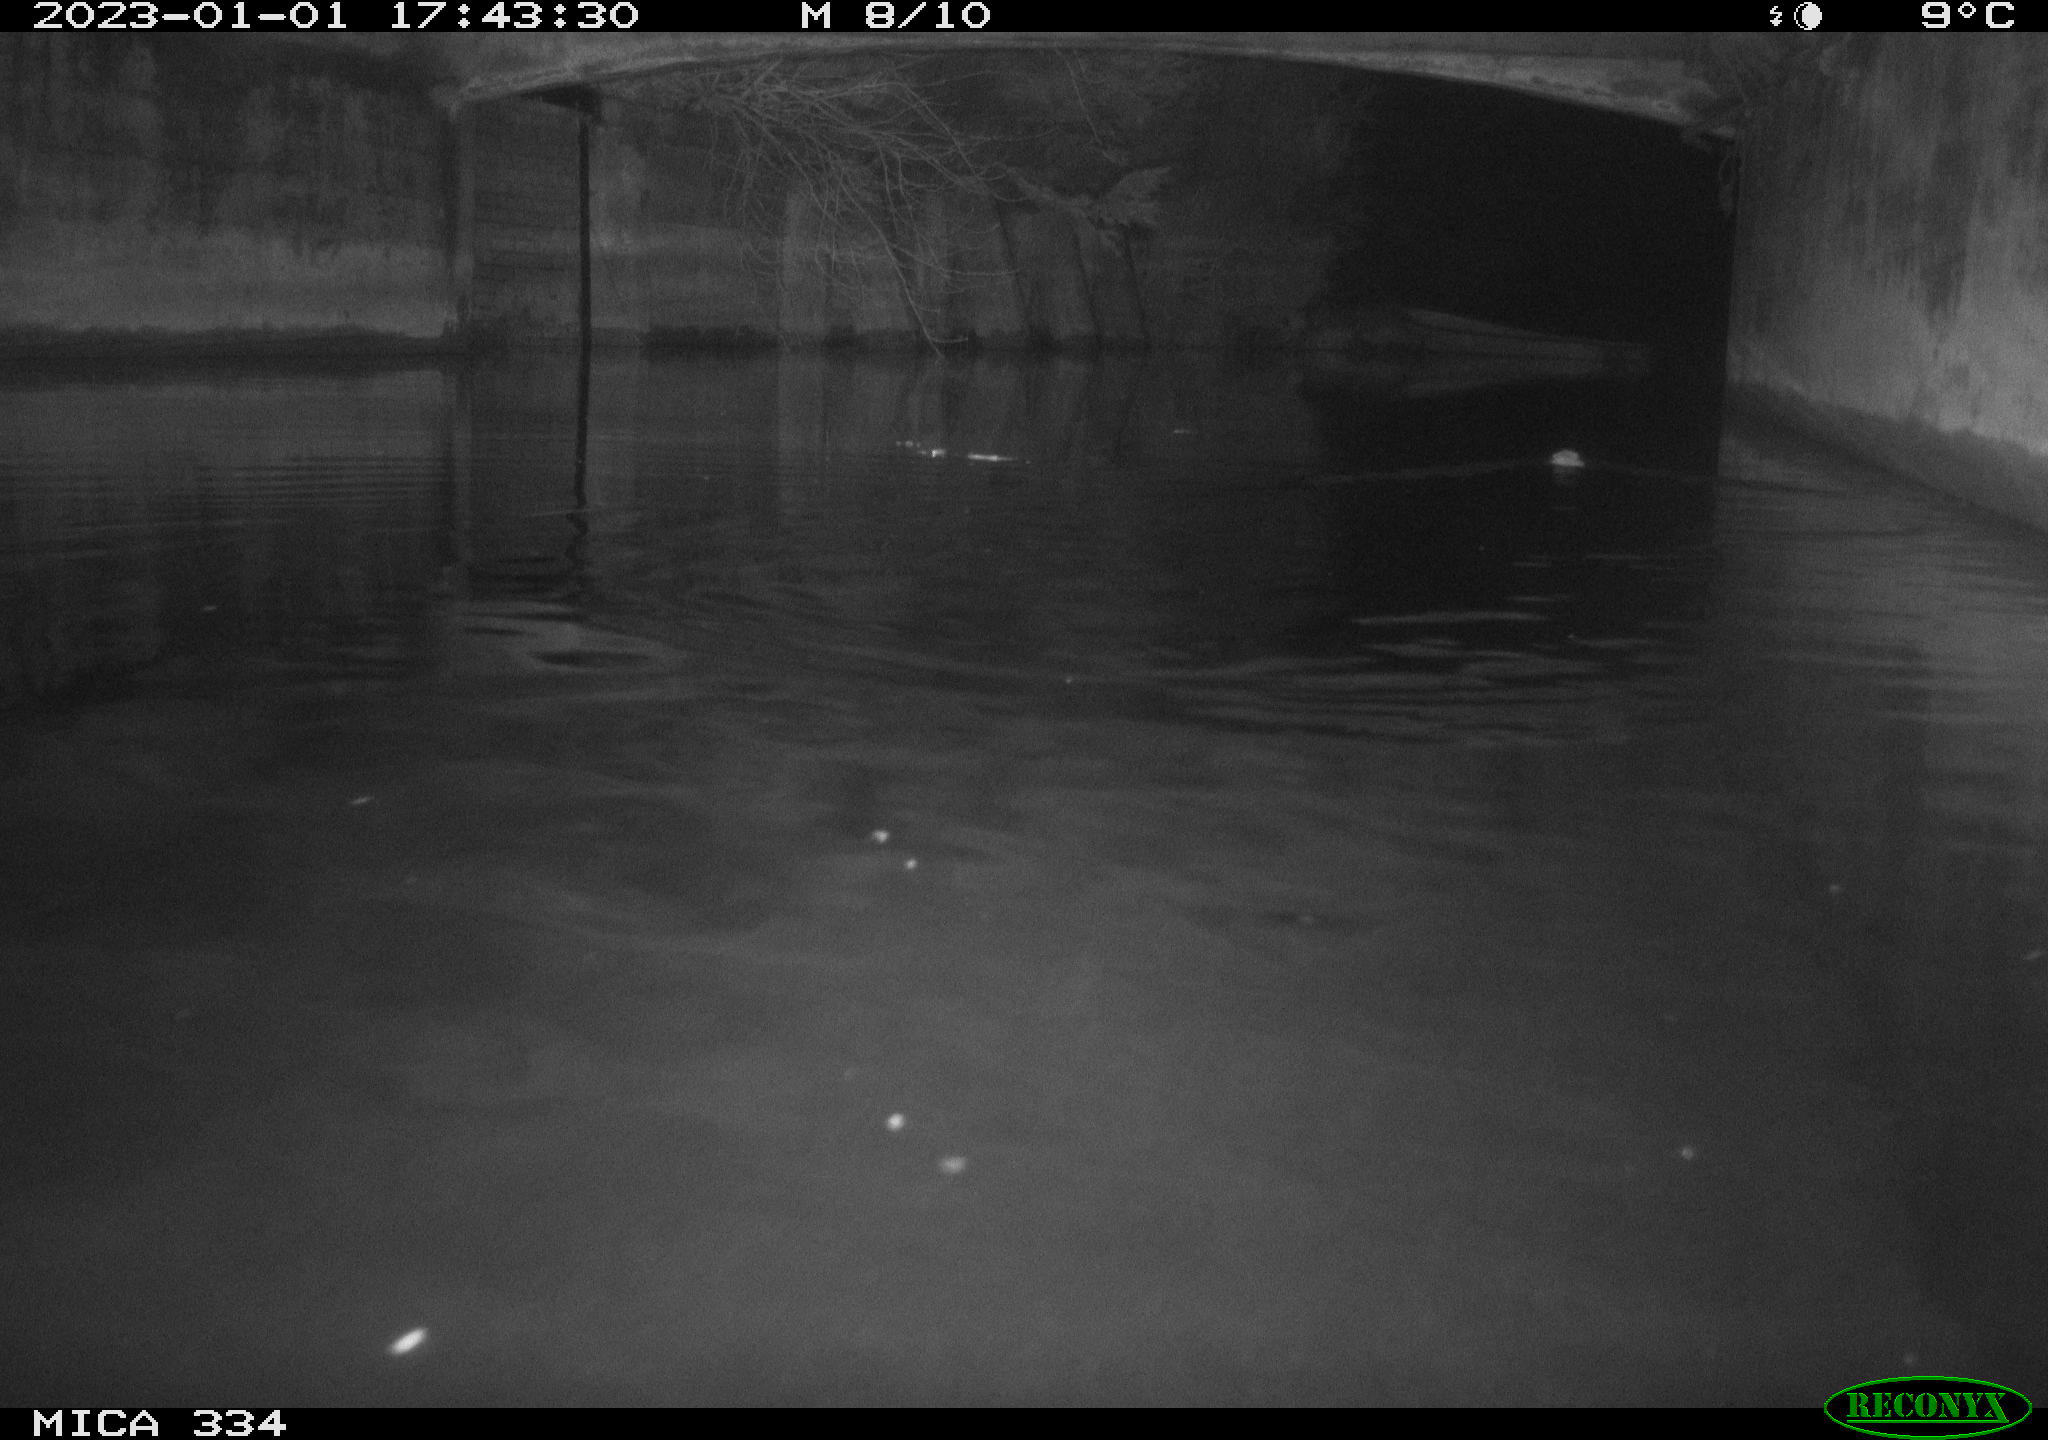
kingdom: Animalia
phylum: Chordata
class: Mammalia
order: Rodentia
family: Muridae
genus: Rattus
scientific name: Rattus norvegicus
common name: Brown rat
